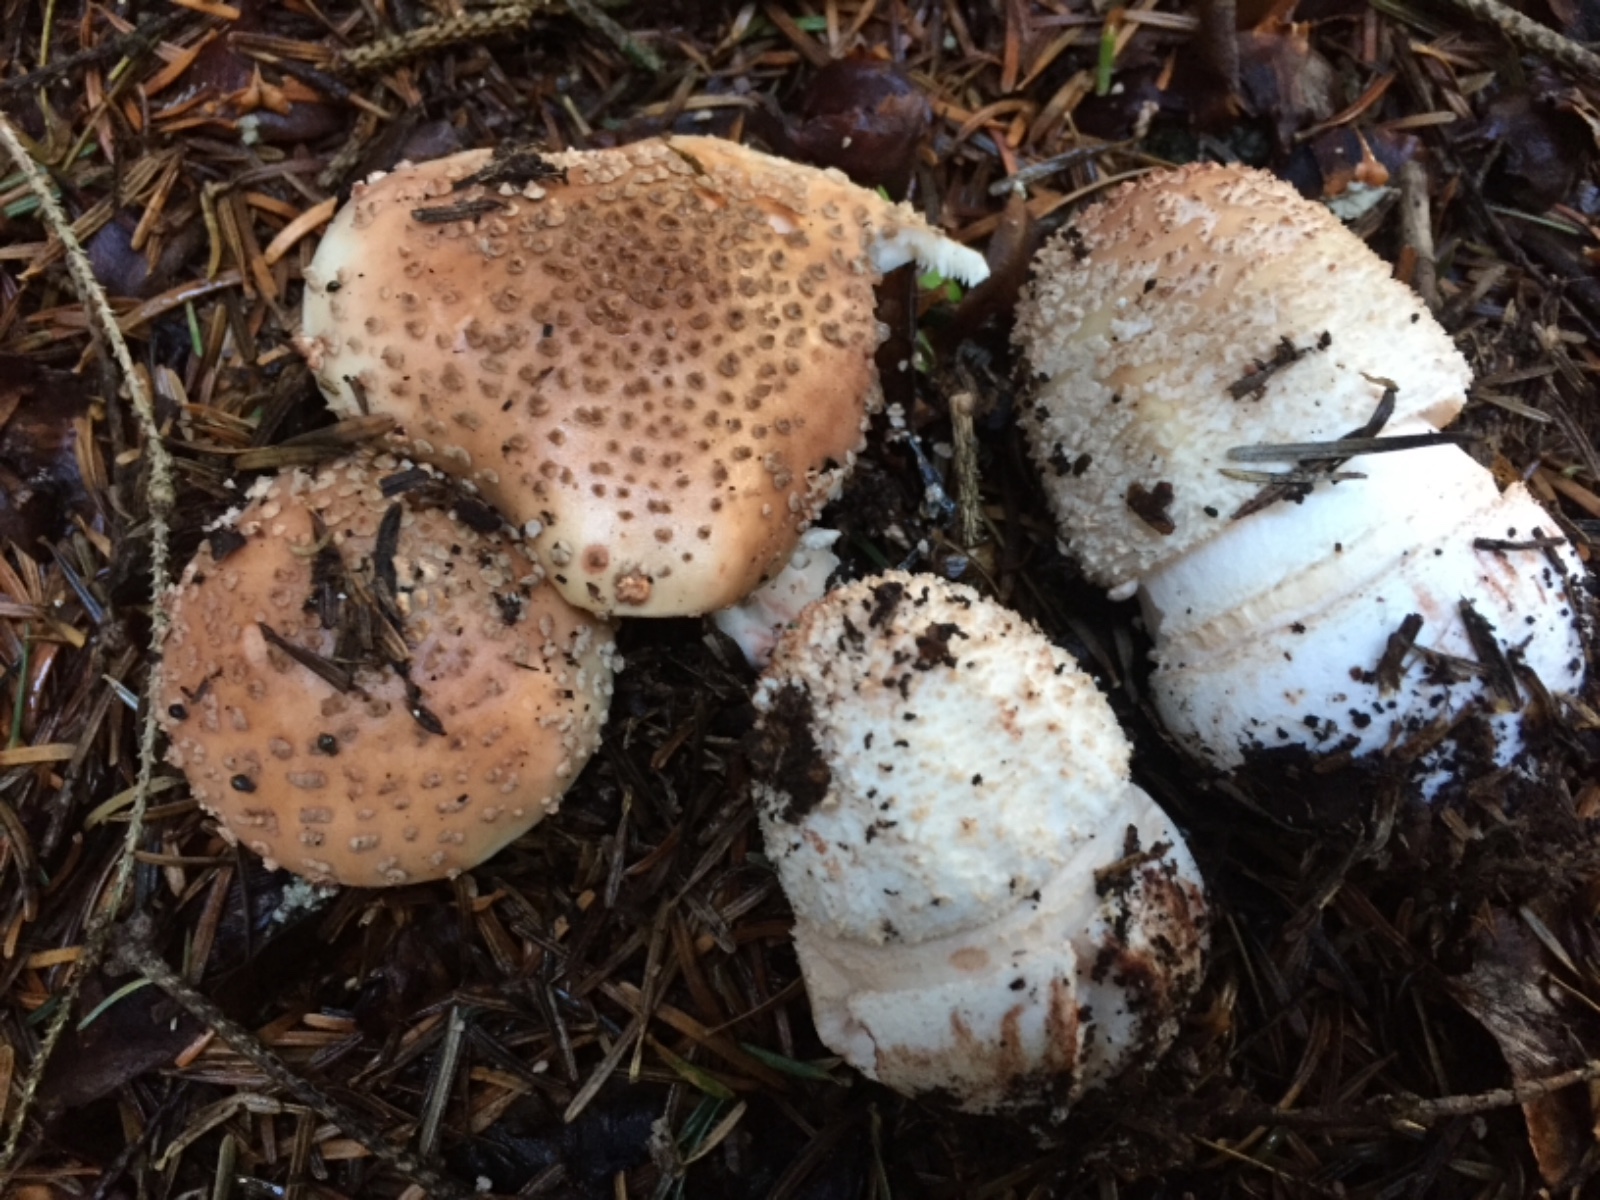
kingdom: Fungi
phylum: Basidiomycota
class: Agaricomycetes
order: Agaricales
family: Amanitaceae
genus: Amanita
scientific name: Amanita rubescens
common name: rødmende fluesvamp
